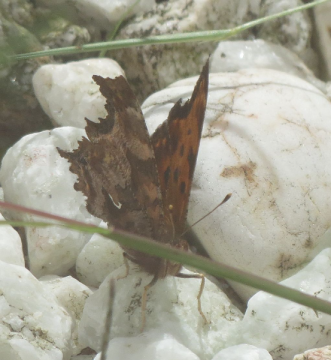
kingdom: Animalia
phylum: Arthropoda
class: Insecta
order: Lepidoptera
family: Nymphalidae
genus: Polygonia
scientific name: Polygonia comma
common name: Eastern Comma
